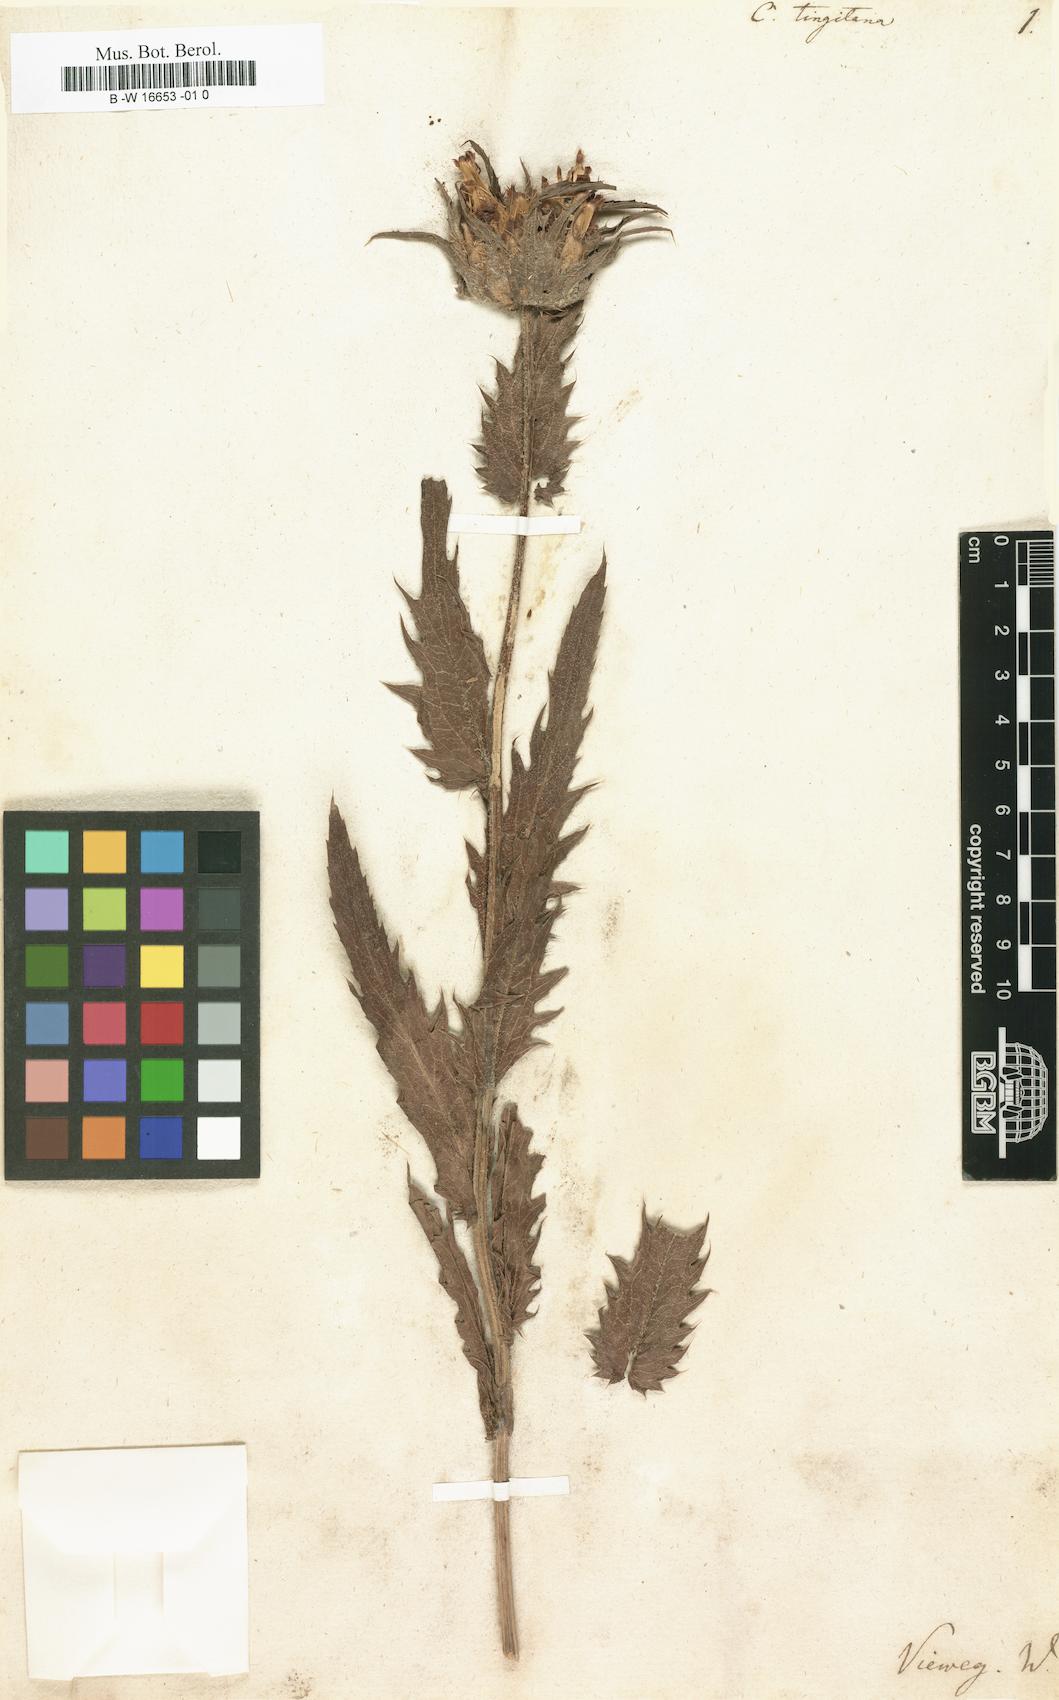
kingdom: Plantae
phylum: Tracheophyta
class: Magnoliopsida
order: Asterales
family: Asteraceae
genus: Carduncellus
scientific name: Carduncellus caeruleus
